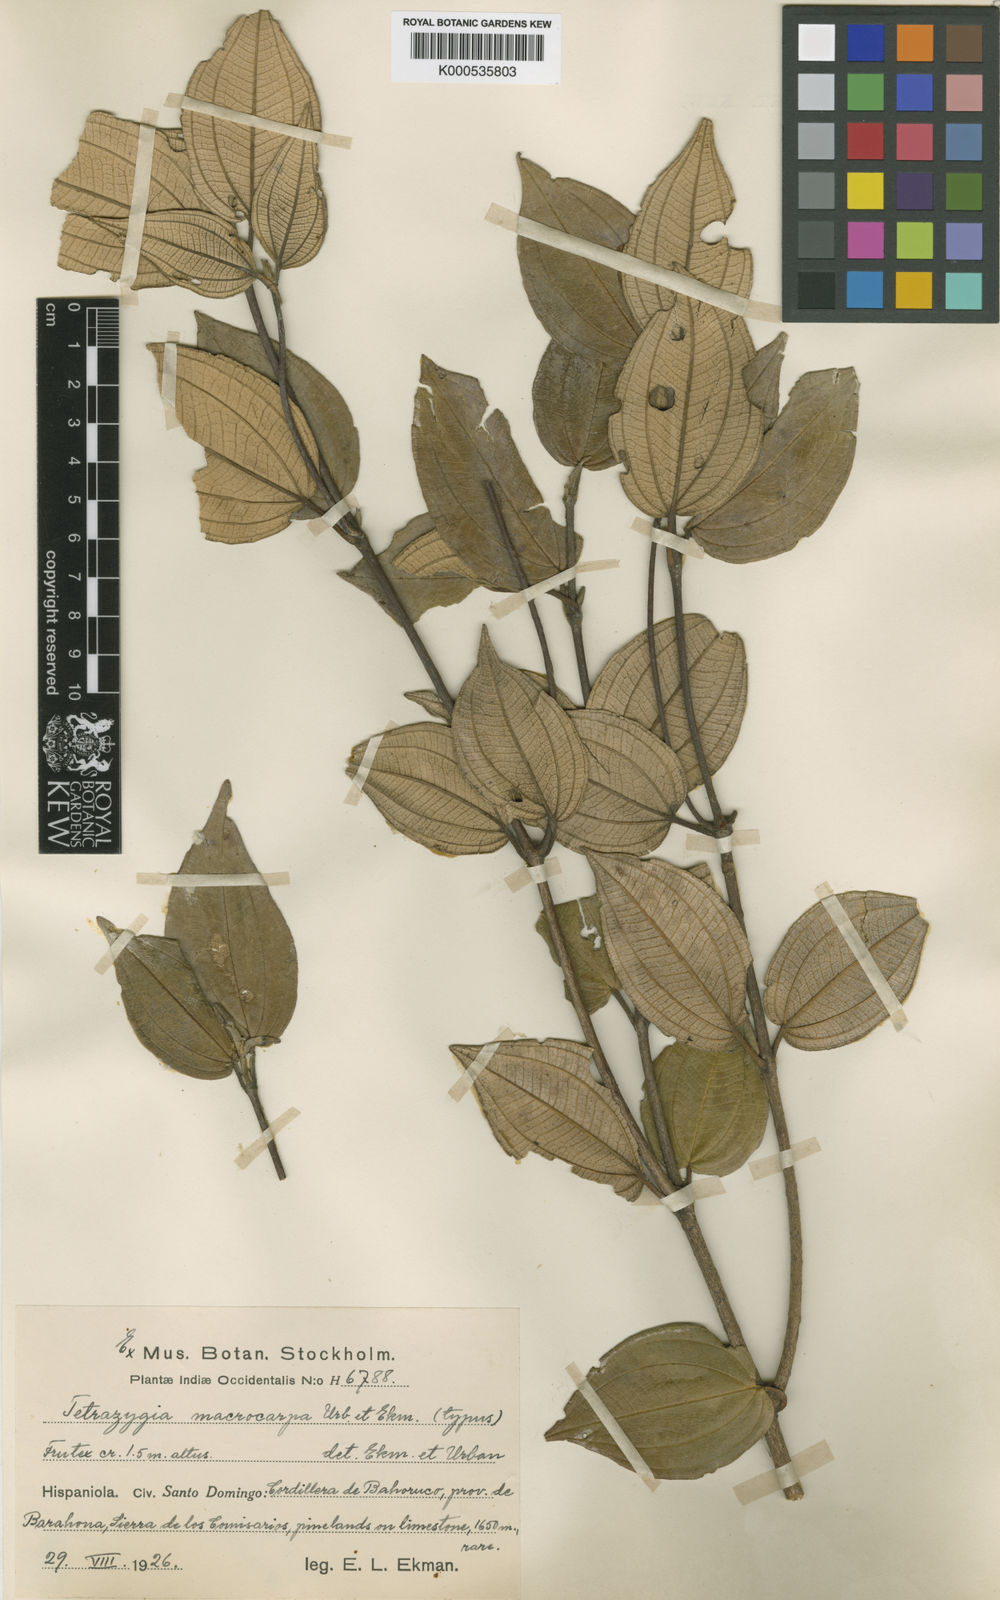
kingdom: Plantae
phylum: Tracheophyta
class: Magnoliopsida
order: Myrtales
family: Melastomataceae
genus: Miconia
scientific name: Miconia macrocarpa
